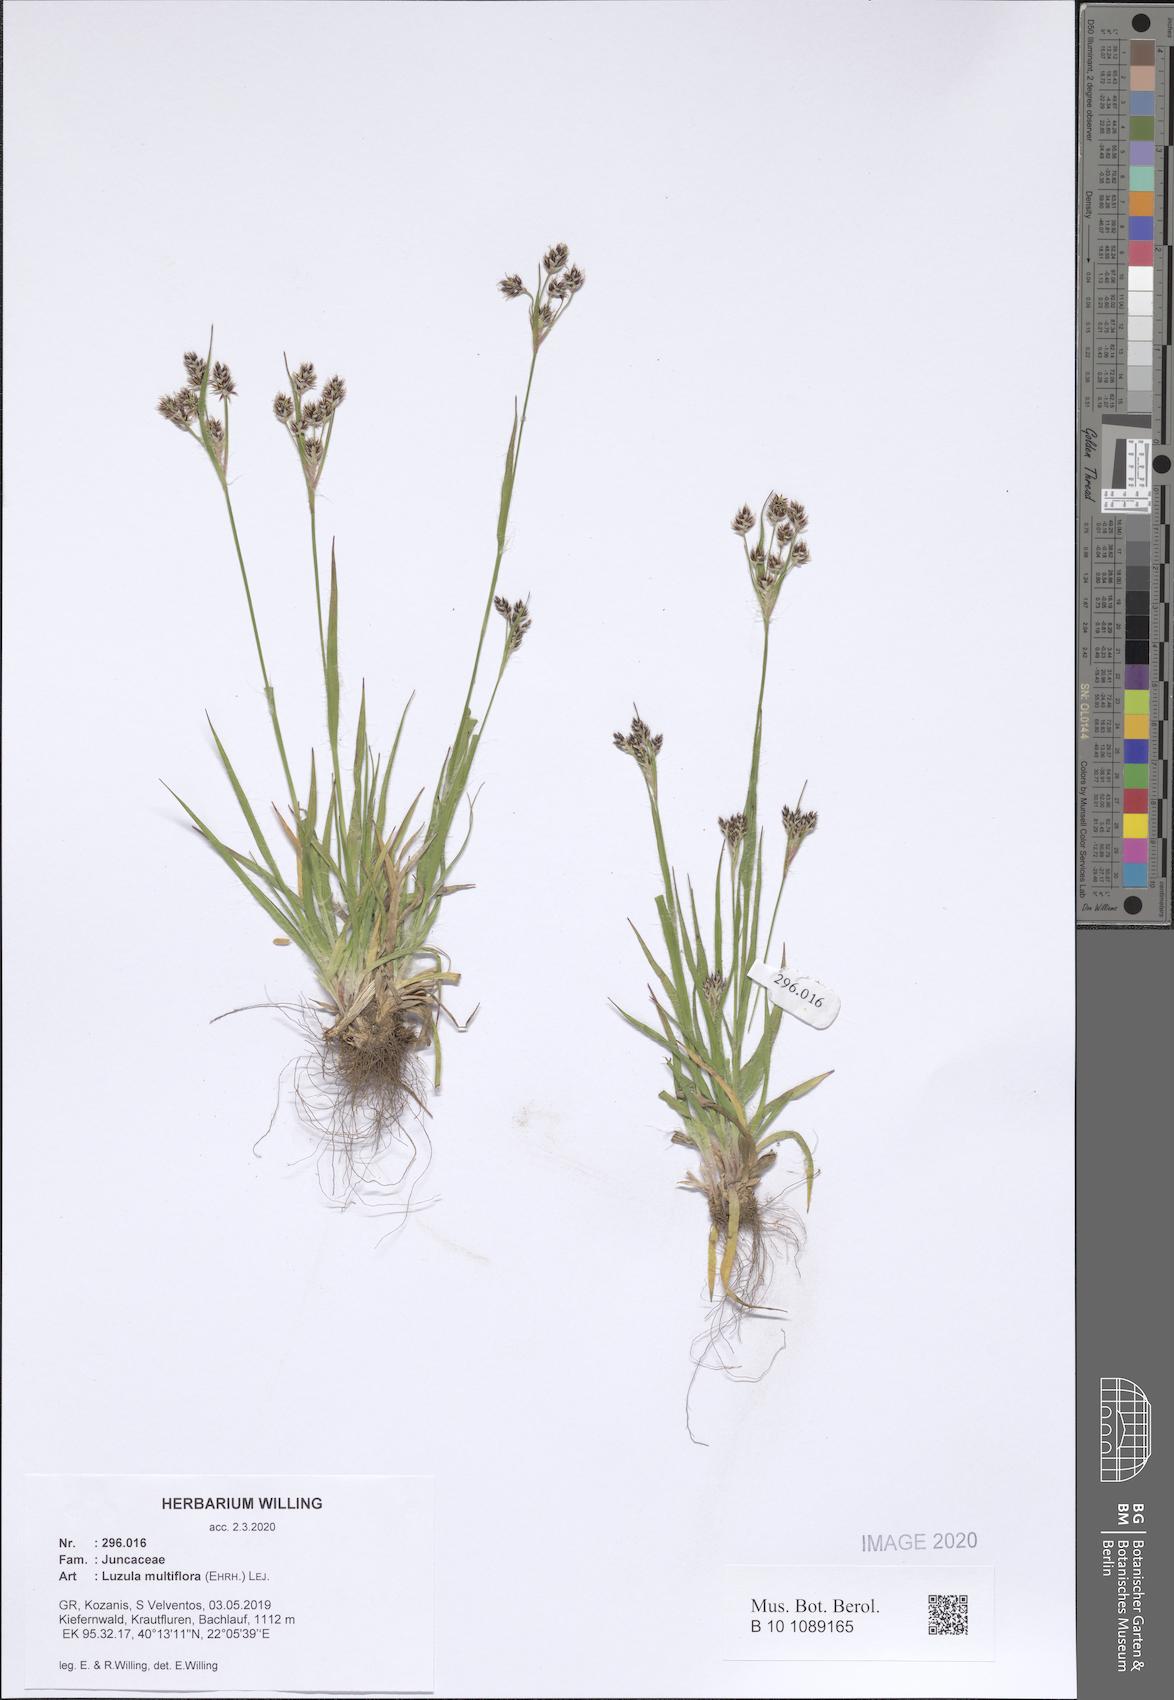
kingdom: Plantae
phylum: Tracheophyta
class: Liliopsida
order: Poales
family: Juncaceae
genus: Luzula
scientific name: Luzula multiflora
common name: Heath wood-rush
